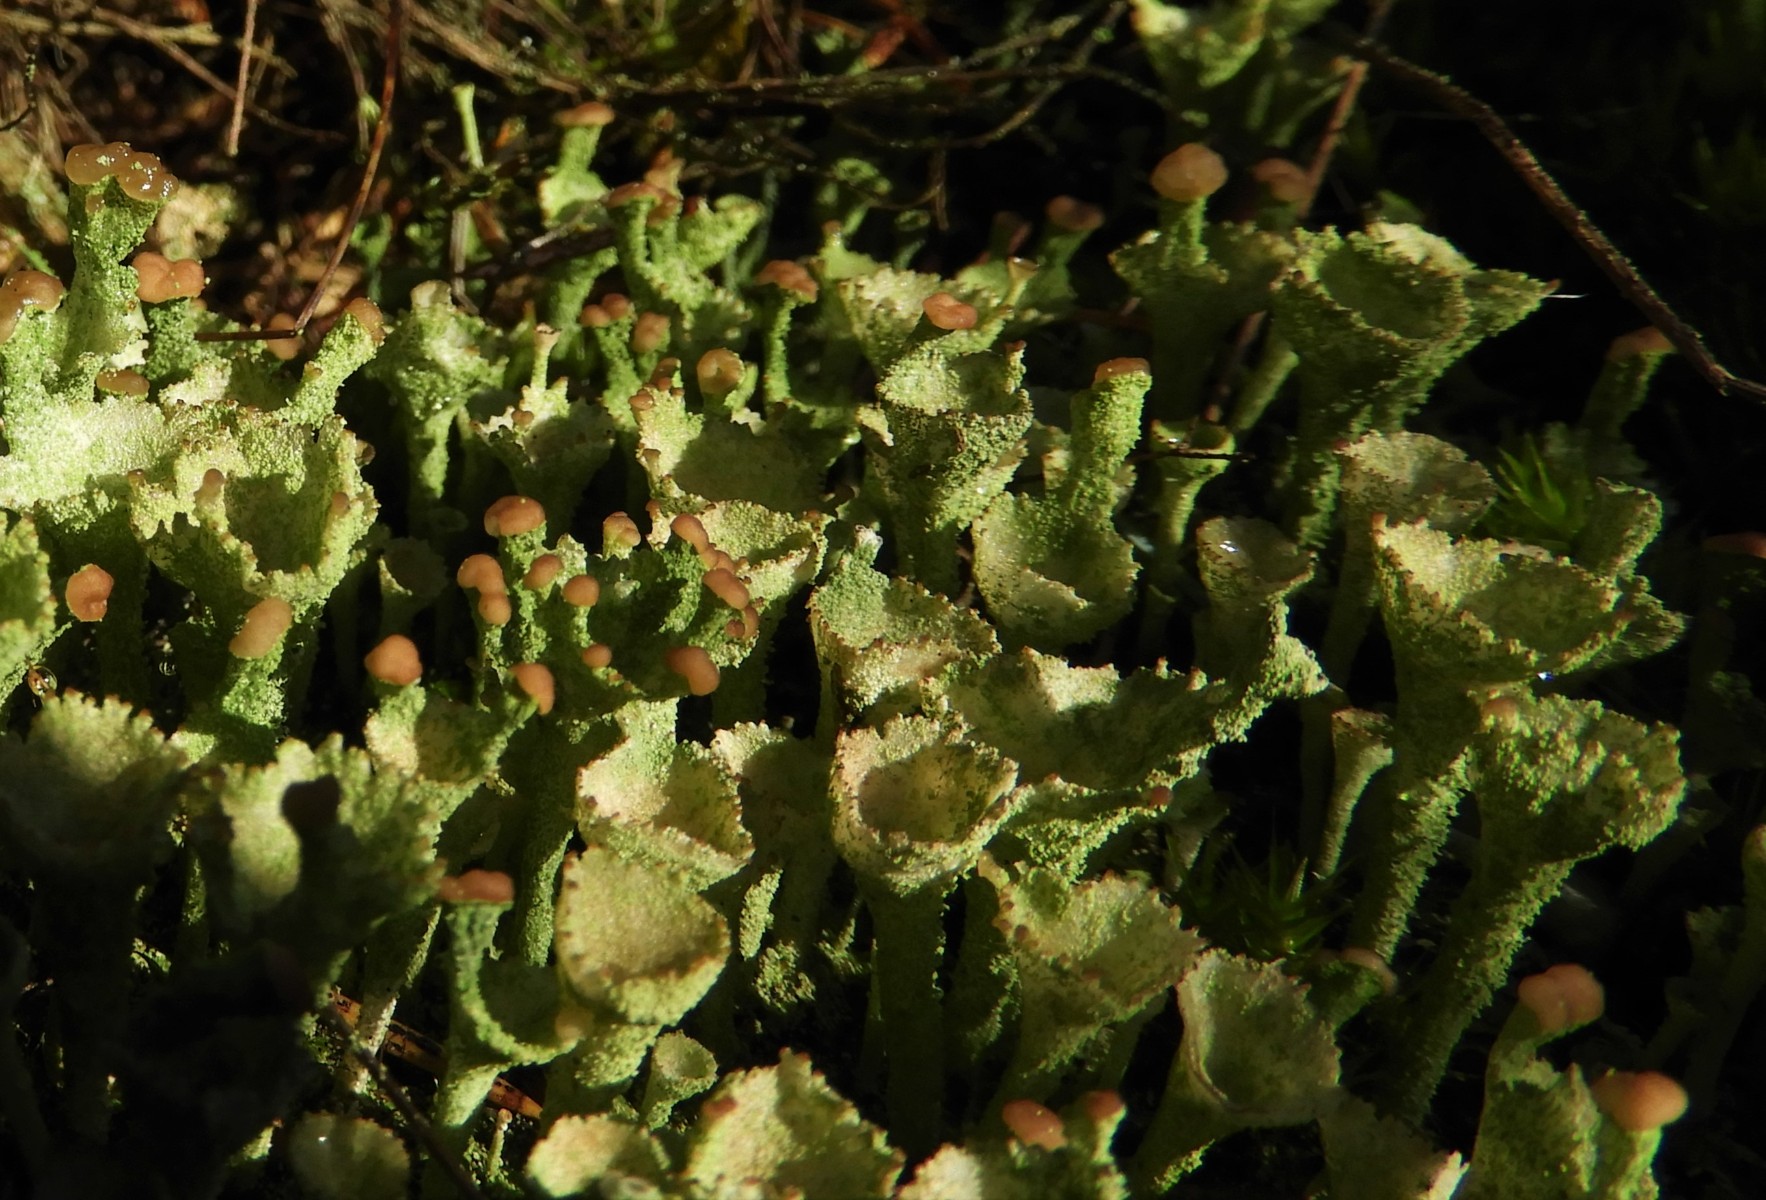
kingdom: Fungi
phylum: Ascomycota
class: Lecanoromycetes
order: Lecanorales
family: Cladoniaceae
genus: Cladonia
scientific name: Cladonia
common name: brungrøn bægerlav
